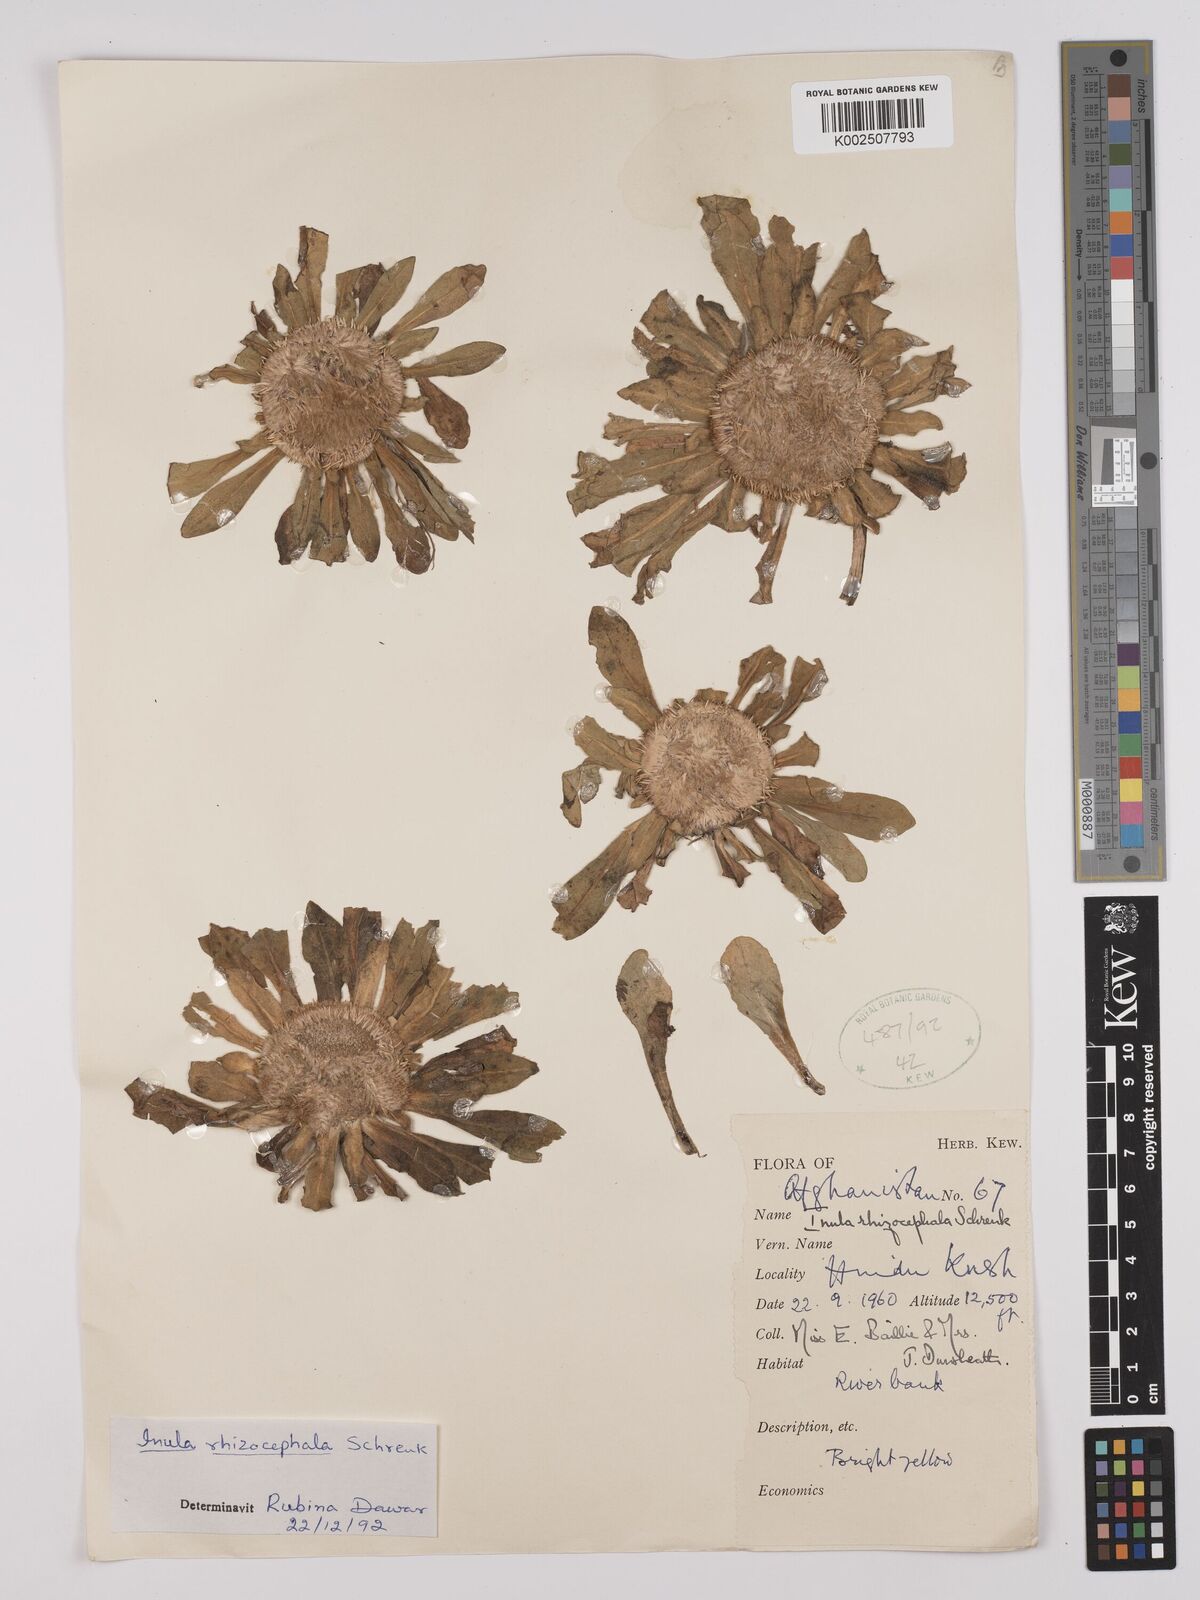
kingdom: Plantae
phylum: Tracheophyta
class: Magnoliopsida
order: Asterales
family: Asteraceae
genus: Inula
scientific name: Inula rhizocephala
